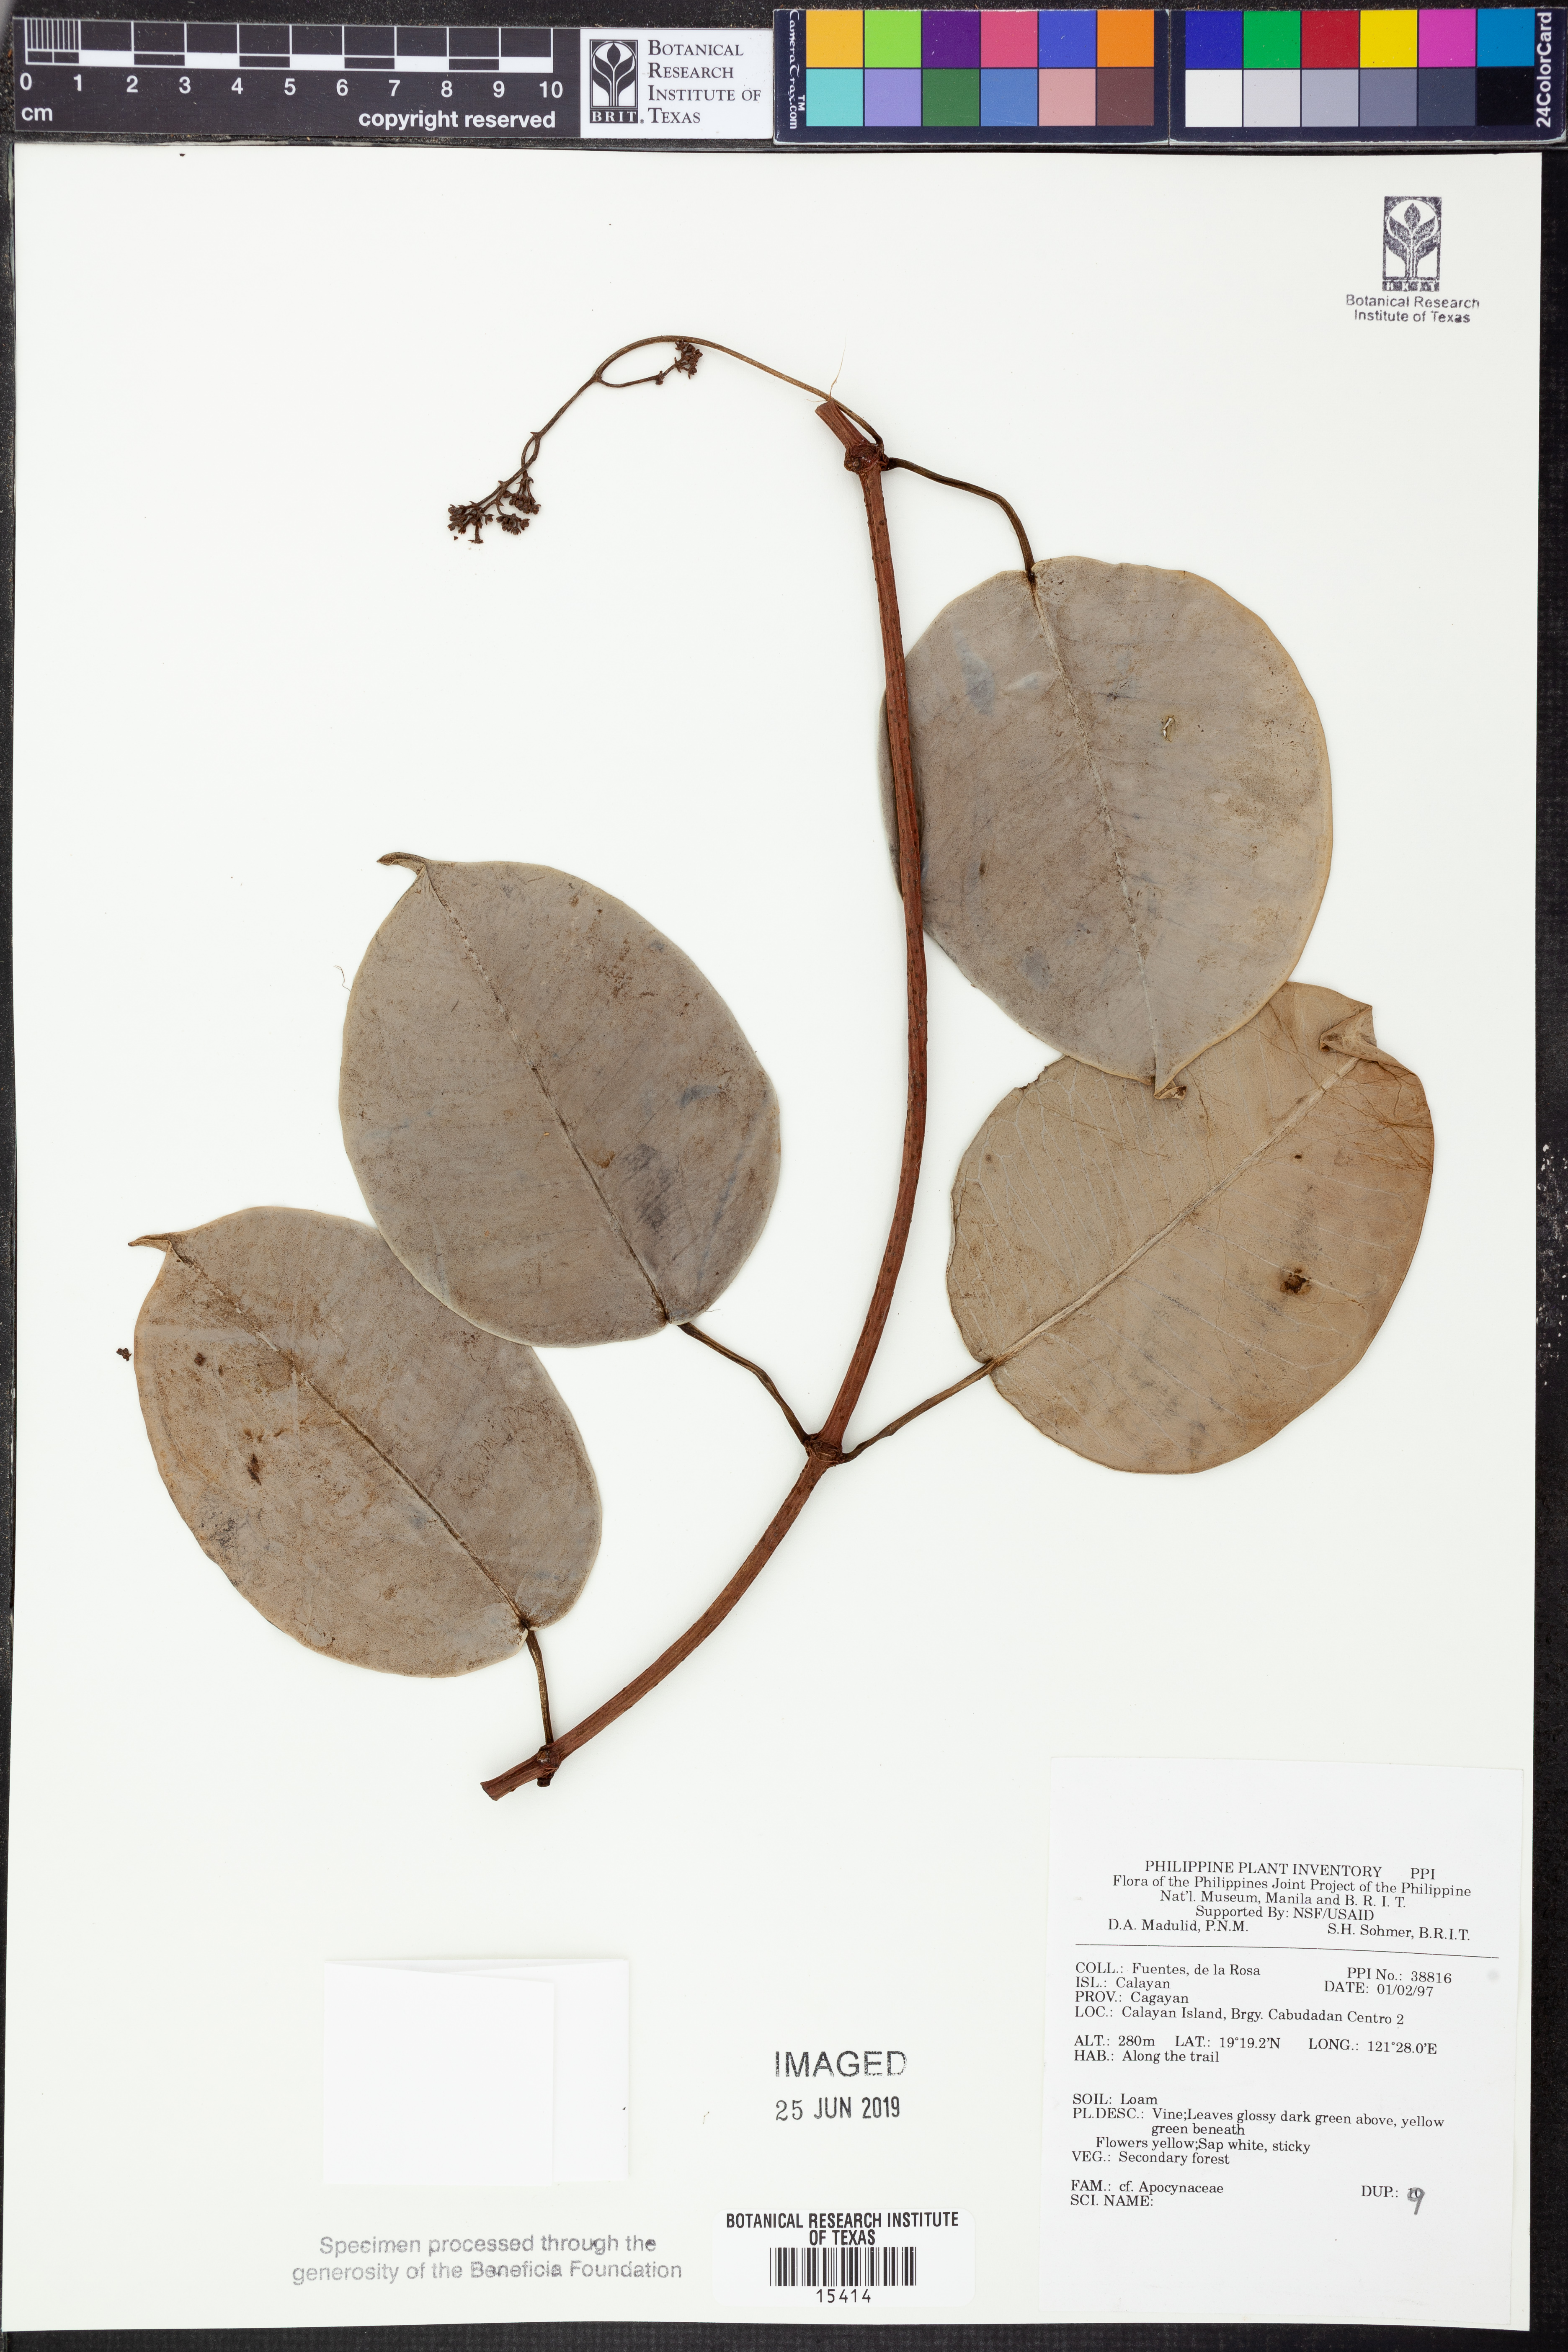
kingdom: Plantae
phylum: Tracheophyta
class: Magnoliopsida
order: Gentianales
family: Apocynaceae
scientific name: Apocynaceae
